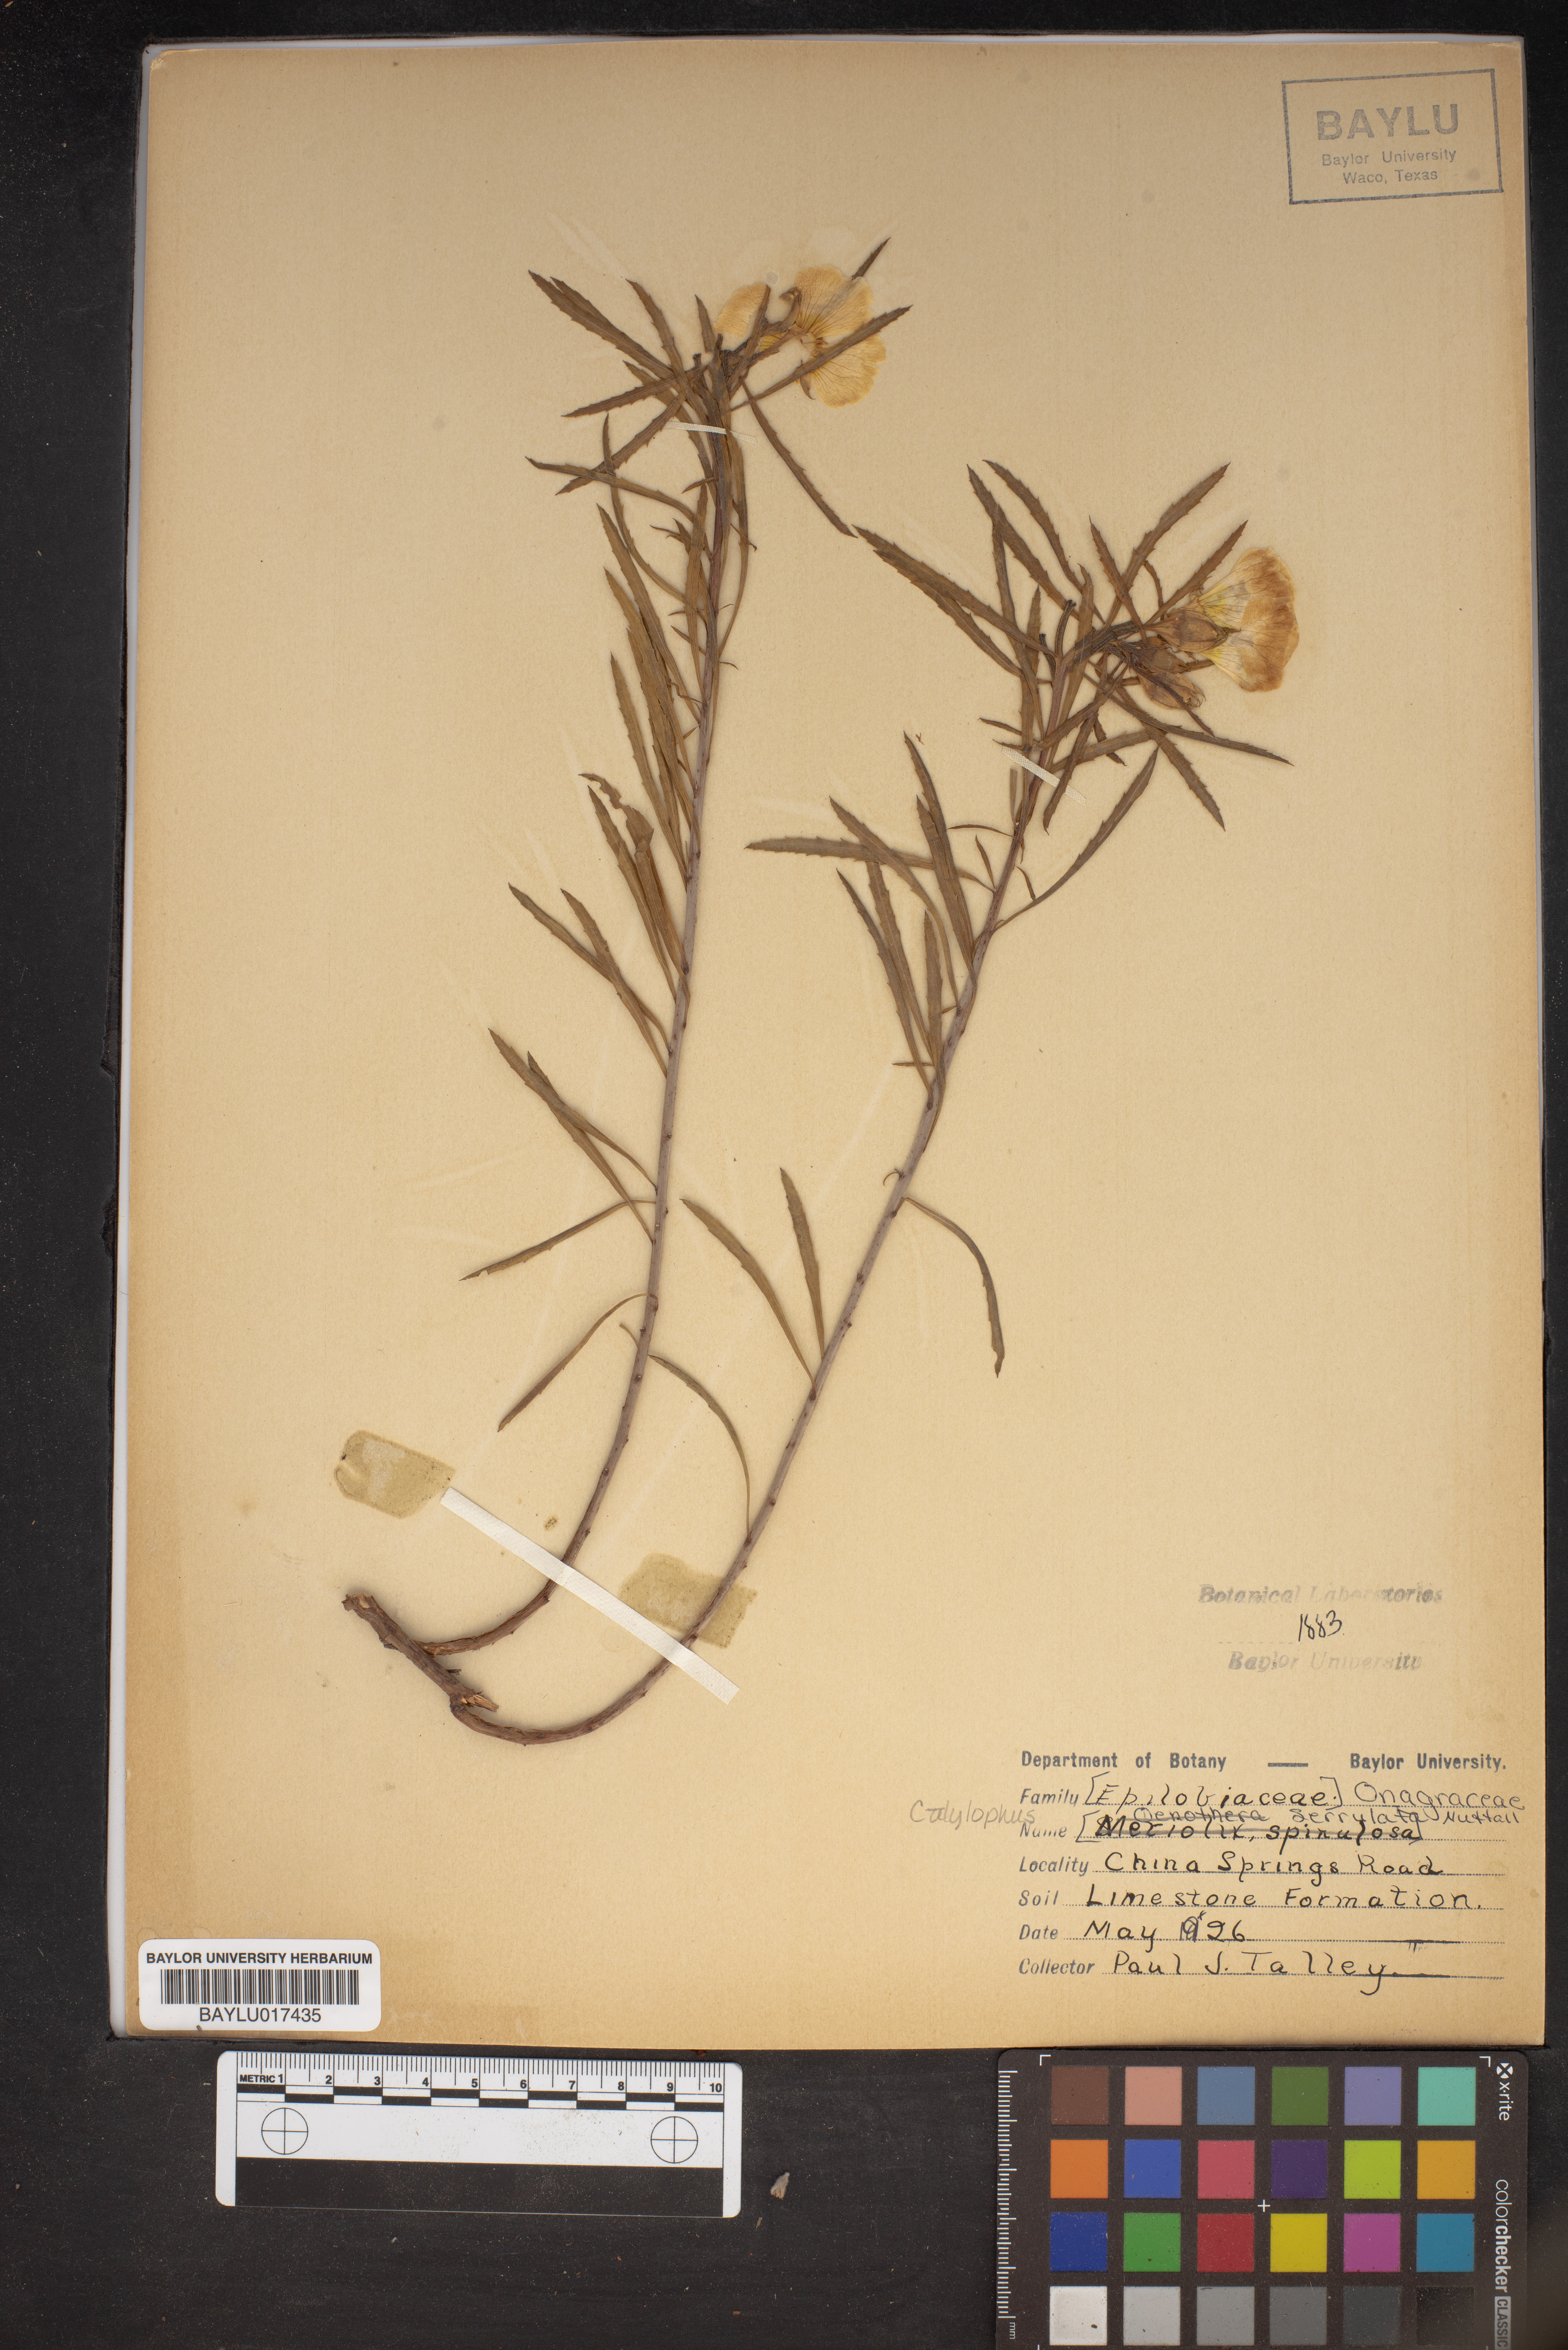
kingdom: Plantae
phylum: Tracheophyta
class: Magnoliopsida
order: Myrtales
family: Onagraceae
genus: Oenothera
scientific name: Oenothera serrulata
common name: Half-shrub calylophus
